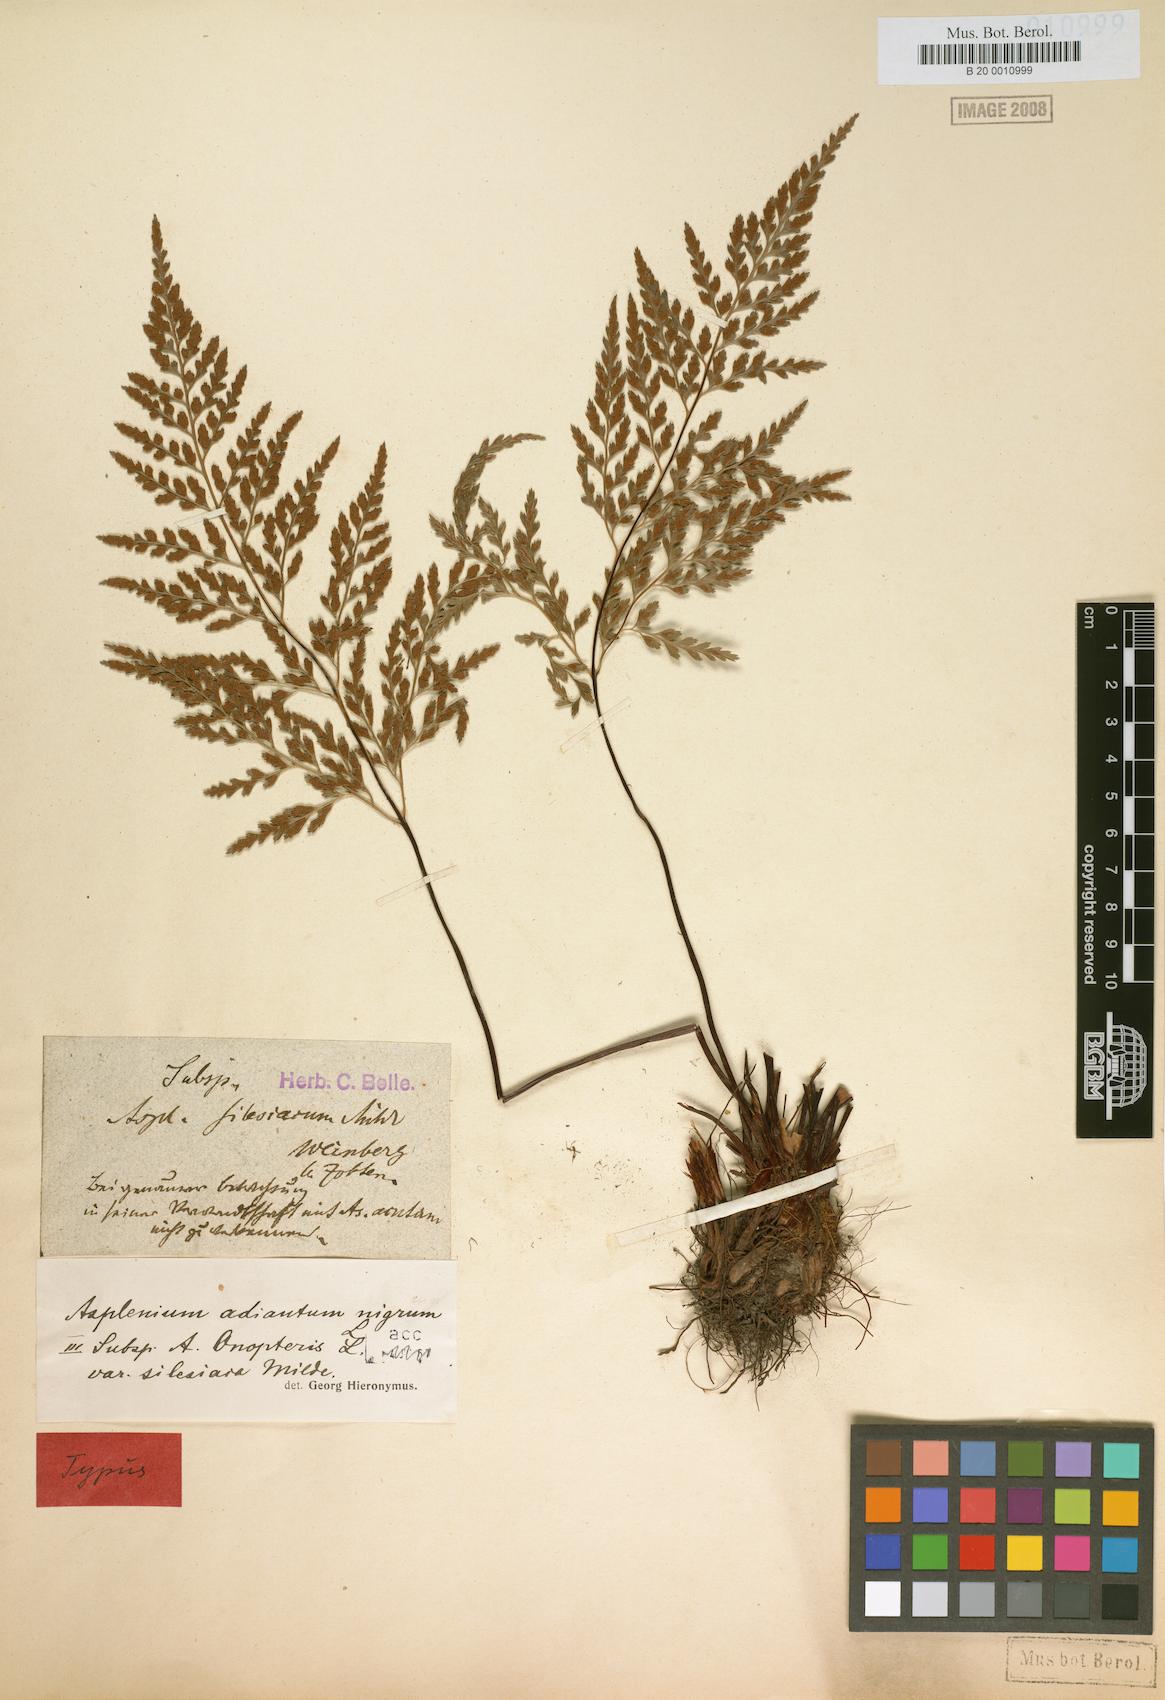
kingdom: Plantae
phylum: Tracheophyta
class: Polypodiopsida
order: Polypodiales
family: Aspleniaceae
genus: Asplenium
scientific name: Asplenium adiantum-nigrum
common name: Black spleenwort
